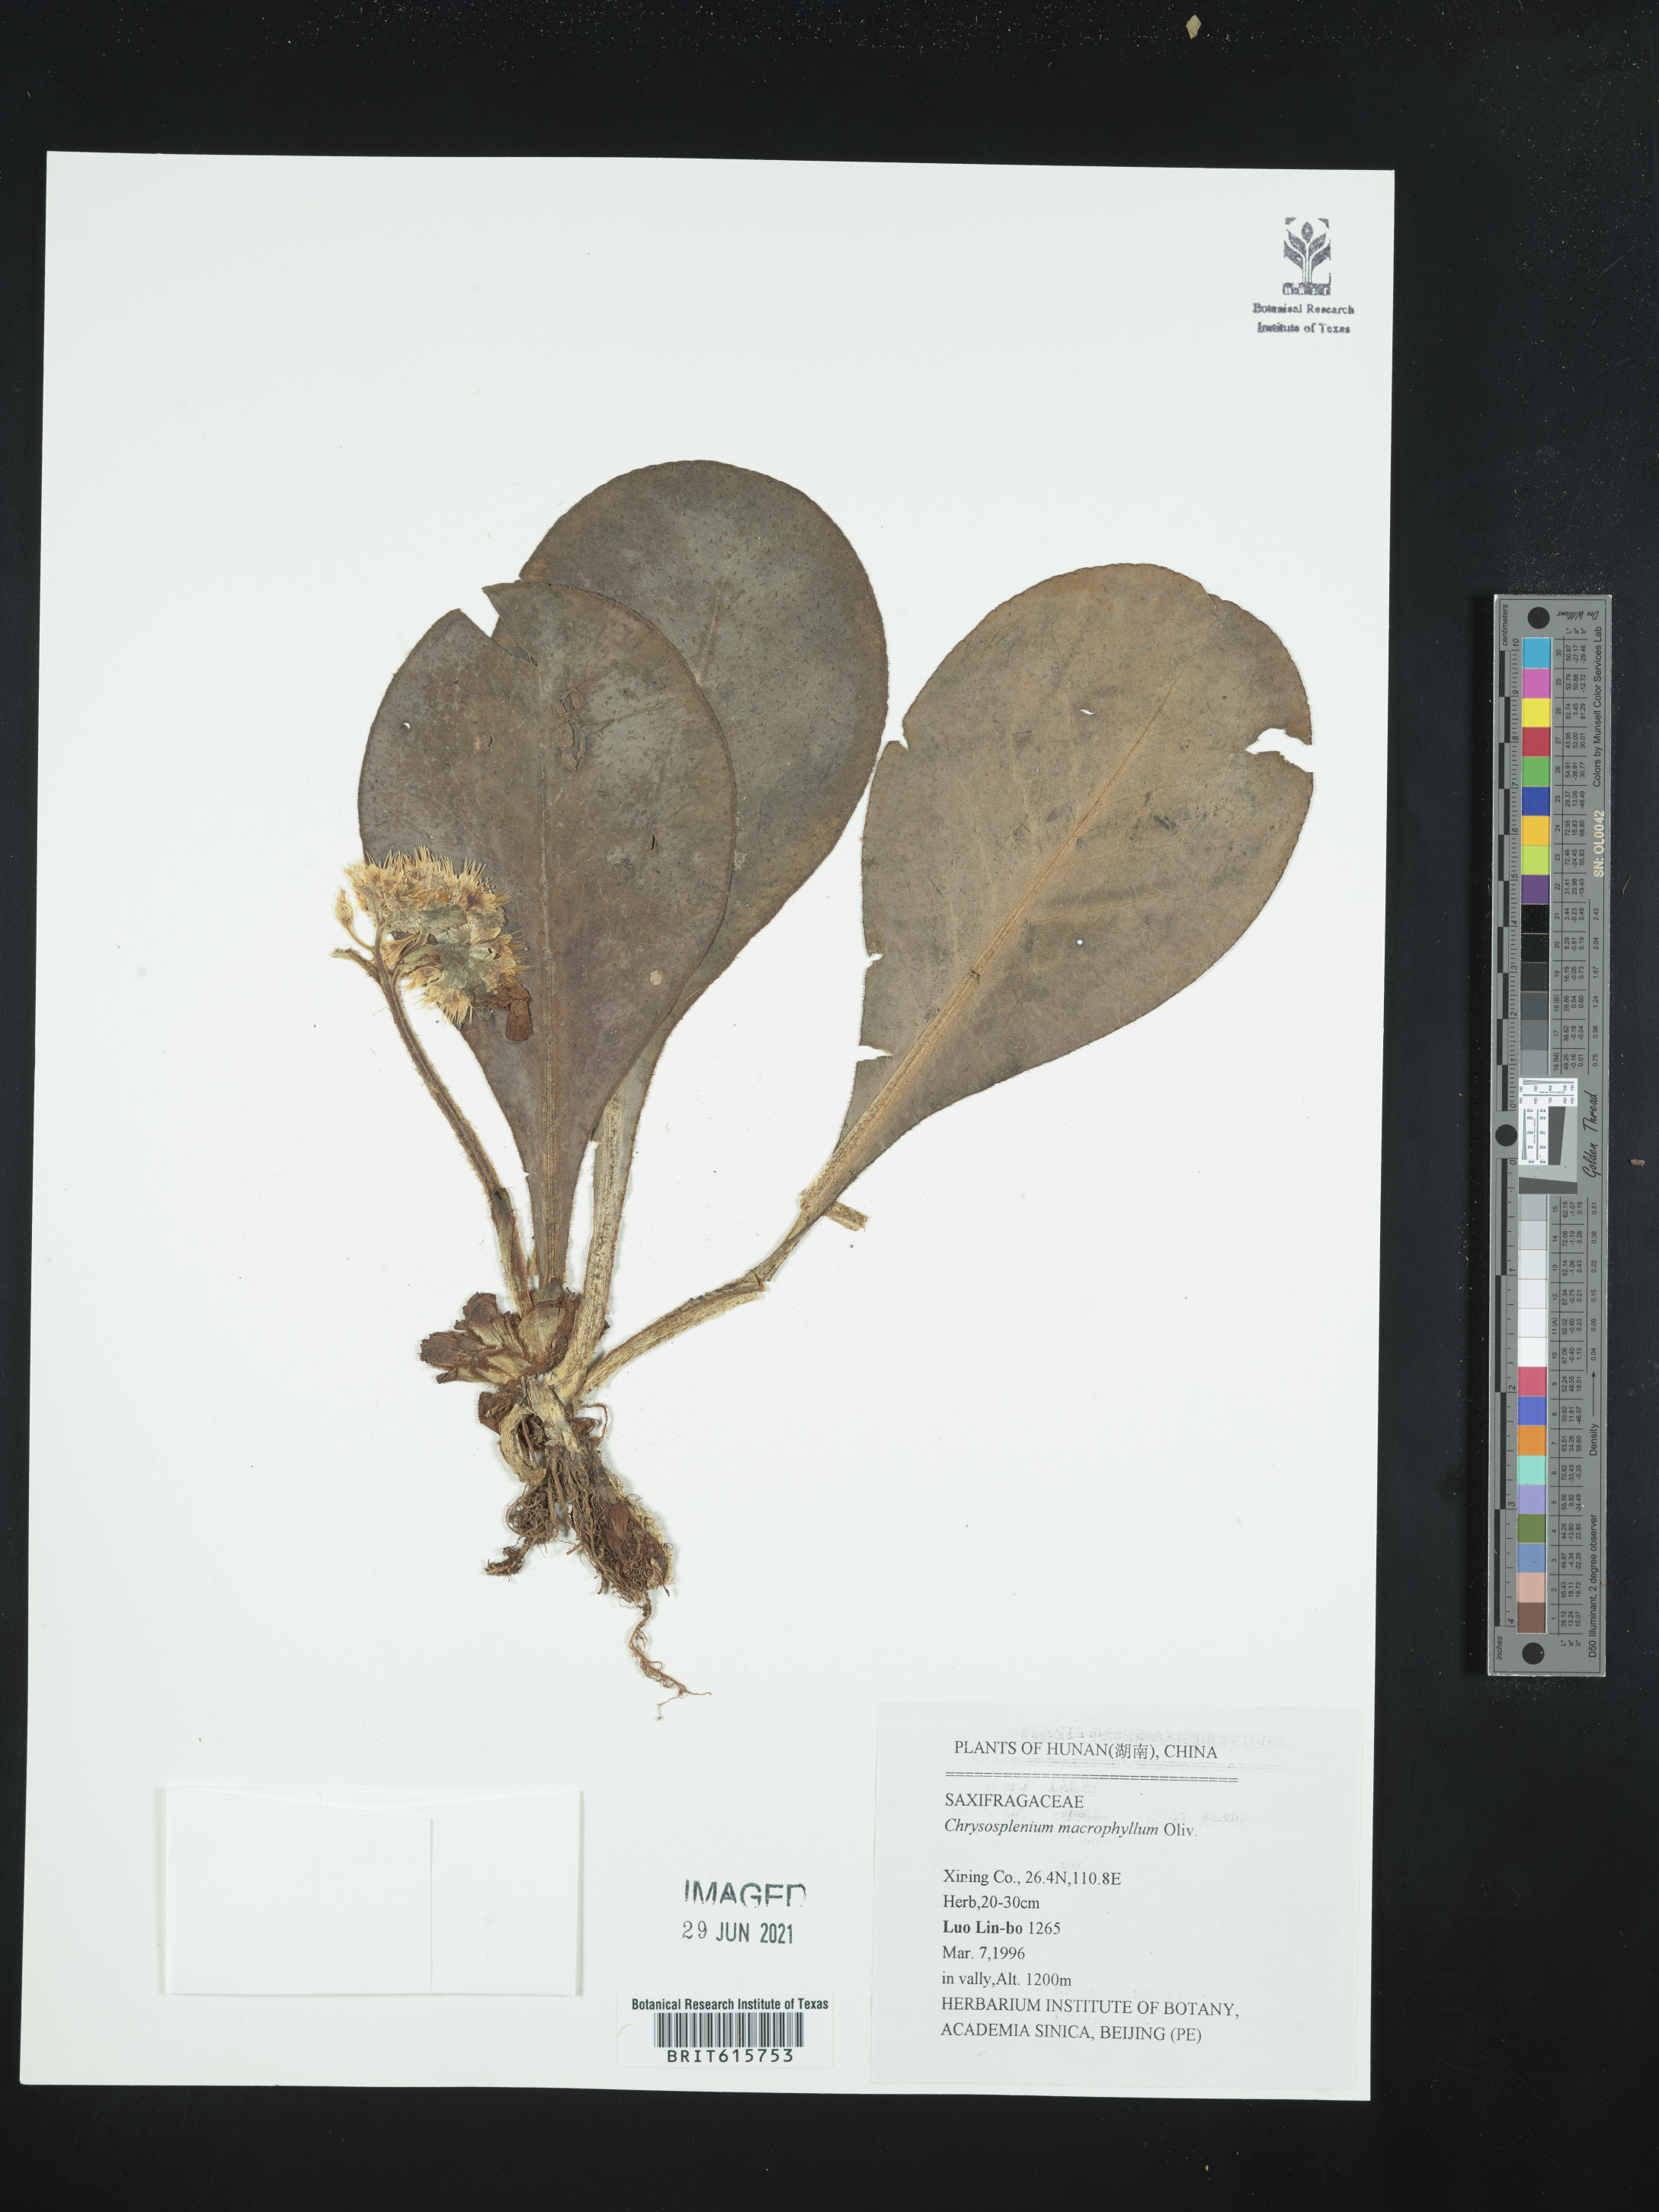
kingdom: Plantae
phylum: Tracheophyta
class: Magnoliopsida
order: Saxifragales
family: Saxifragaceae
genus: Chrysosplenium
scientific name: Chrysosplenium macrophyllum
